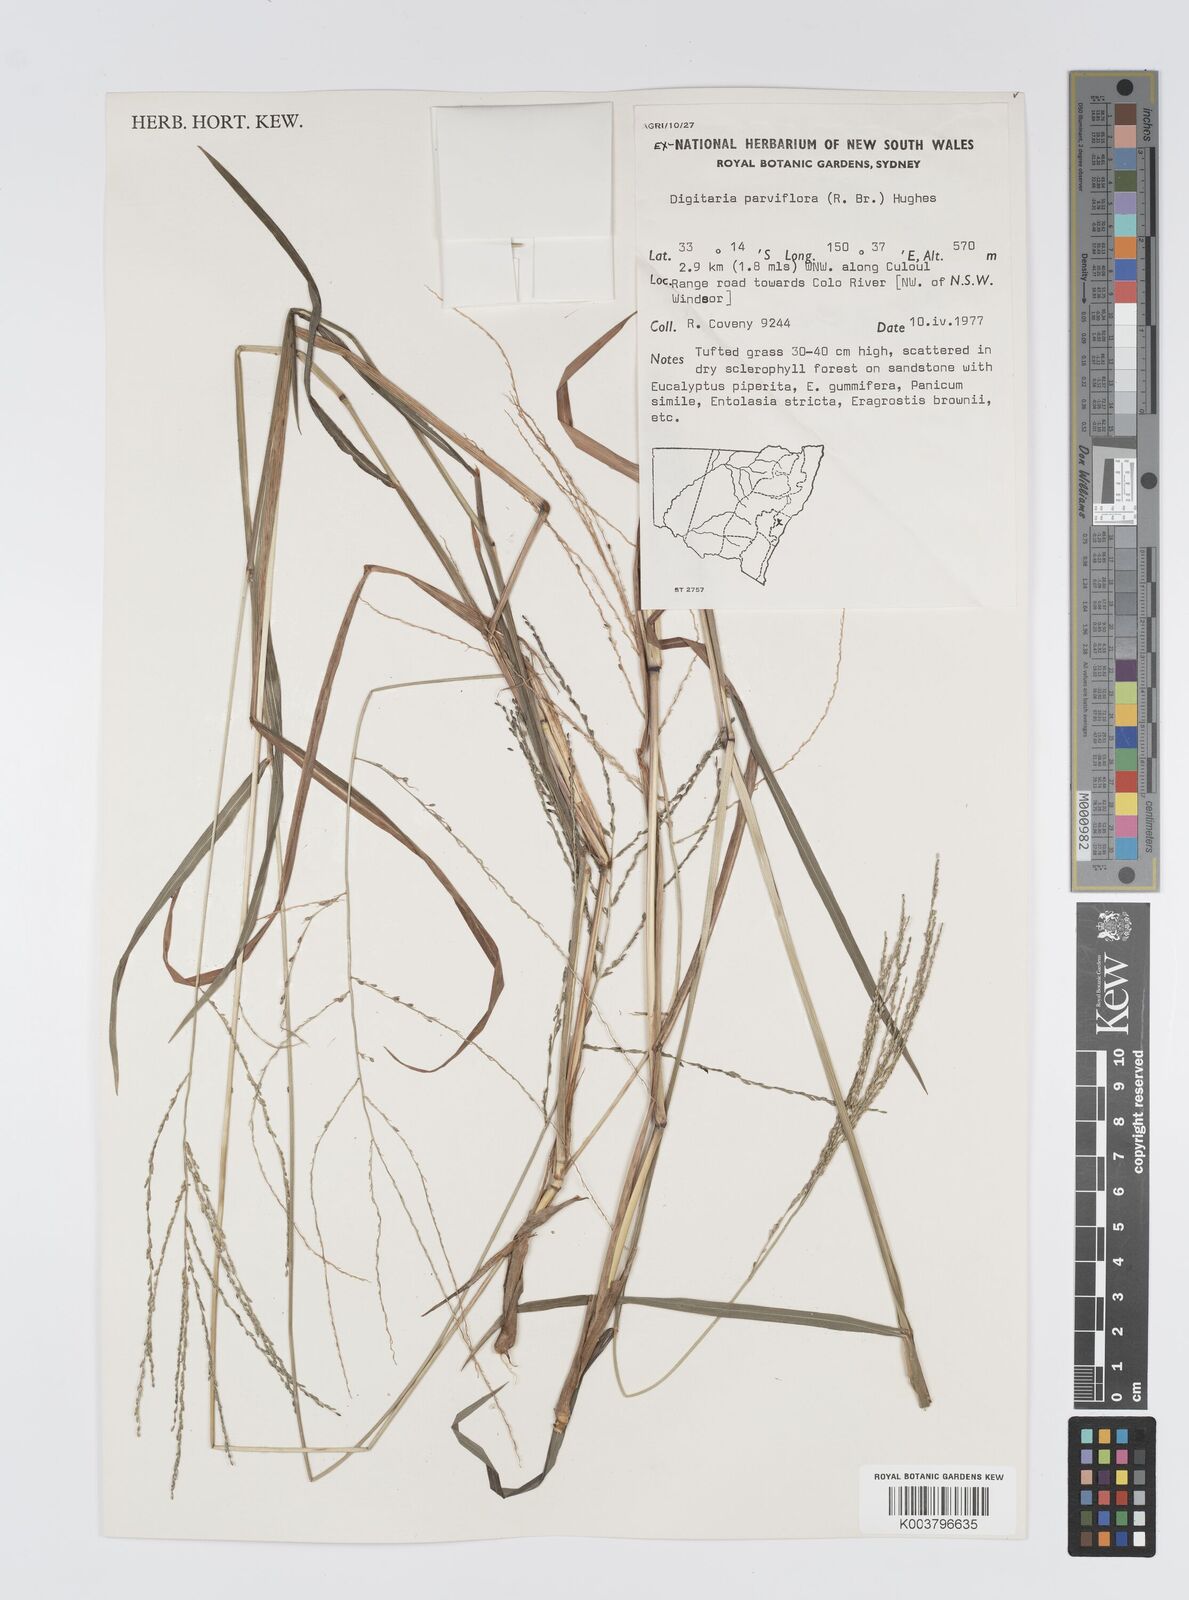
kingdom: Plantae
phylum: Tracheophyta
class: Liliopsida
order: Poales
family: Poaceae
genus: Digitaria
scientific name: Digitaria parviflora
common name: Small-flower finger grass
